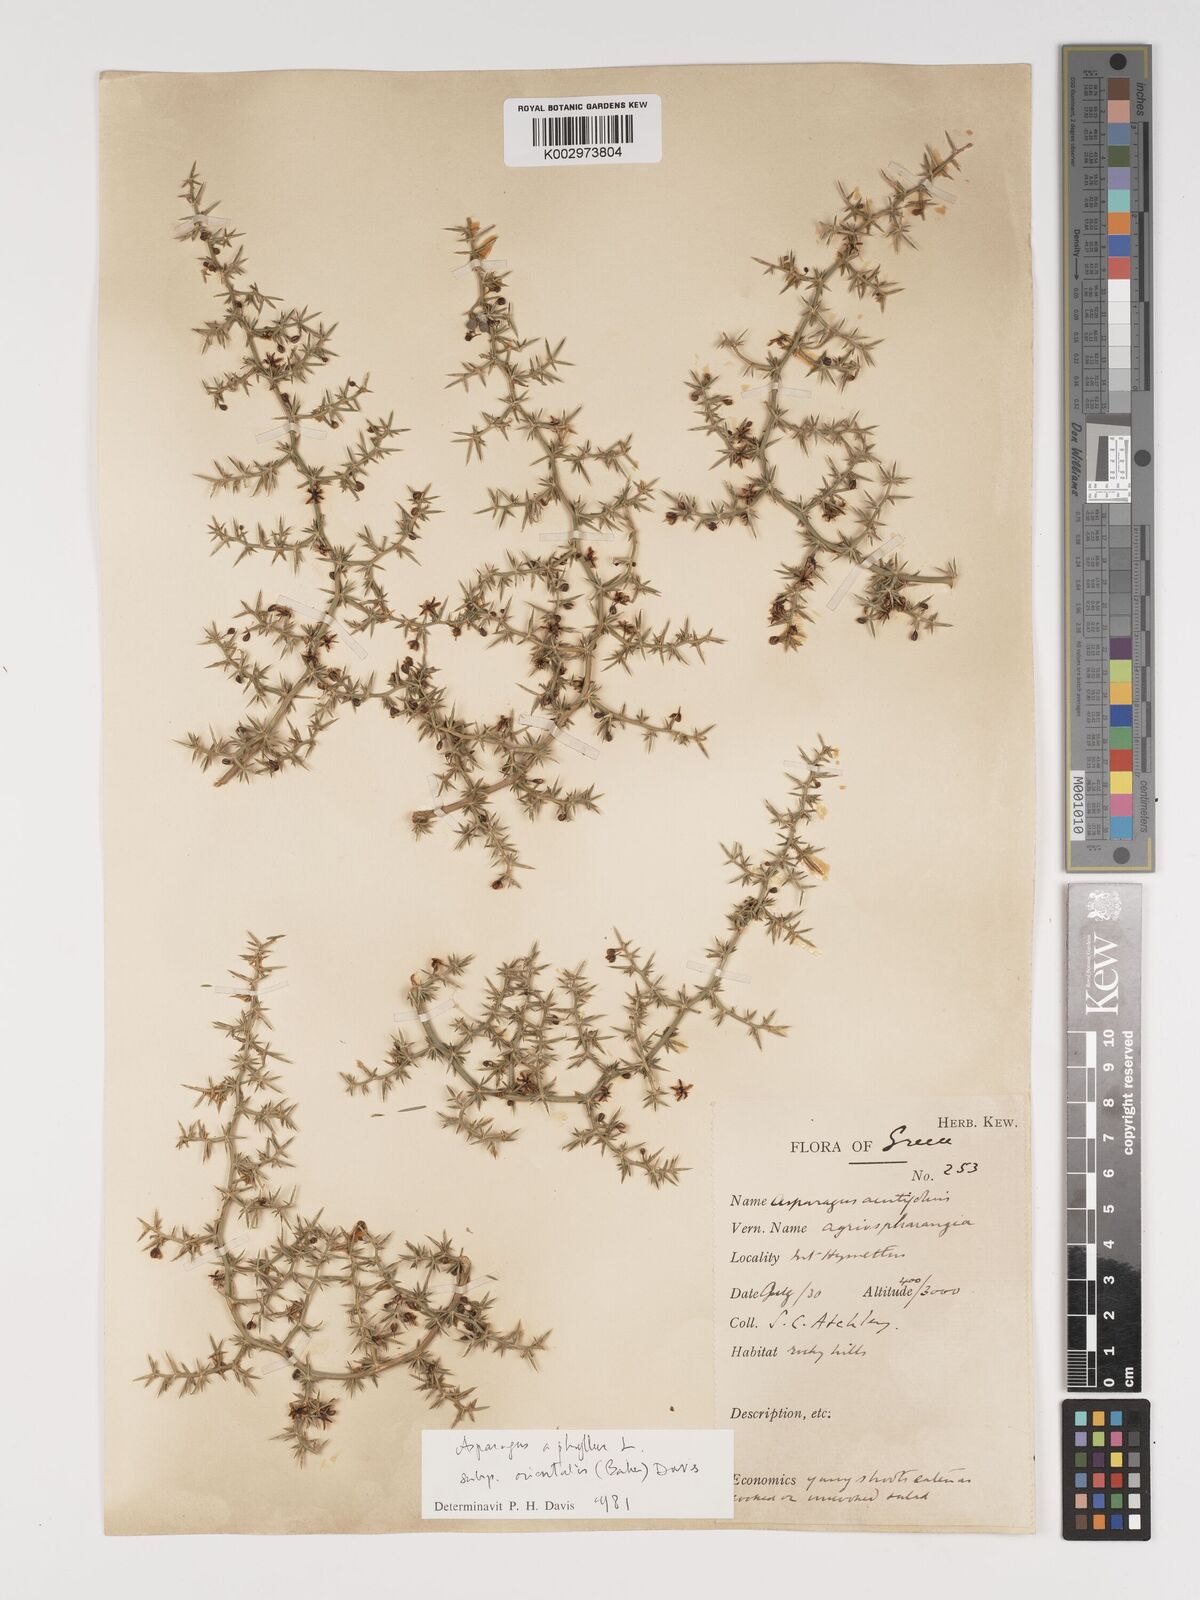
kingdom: Plantae
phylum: Tracheophyta
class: Liliopsida
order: Asparagales
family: Asparagaceae
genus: Asparagus
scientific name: Asparagus aphyllus
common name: Mediterranean asparagus
